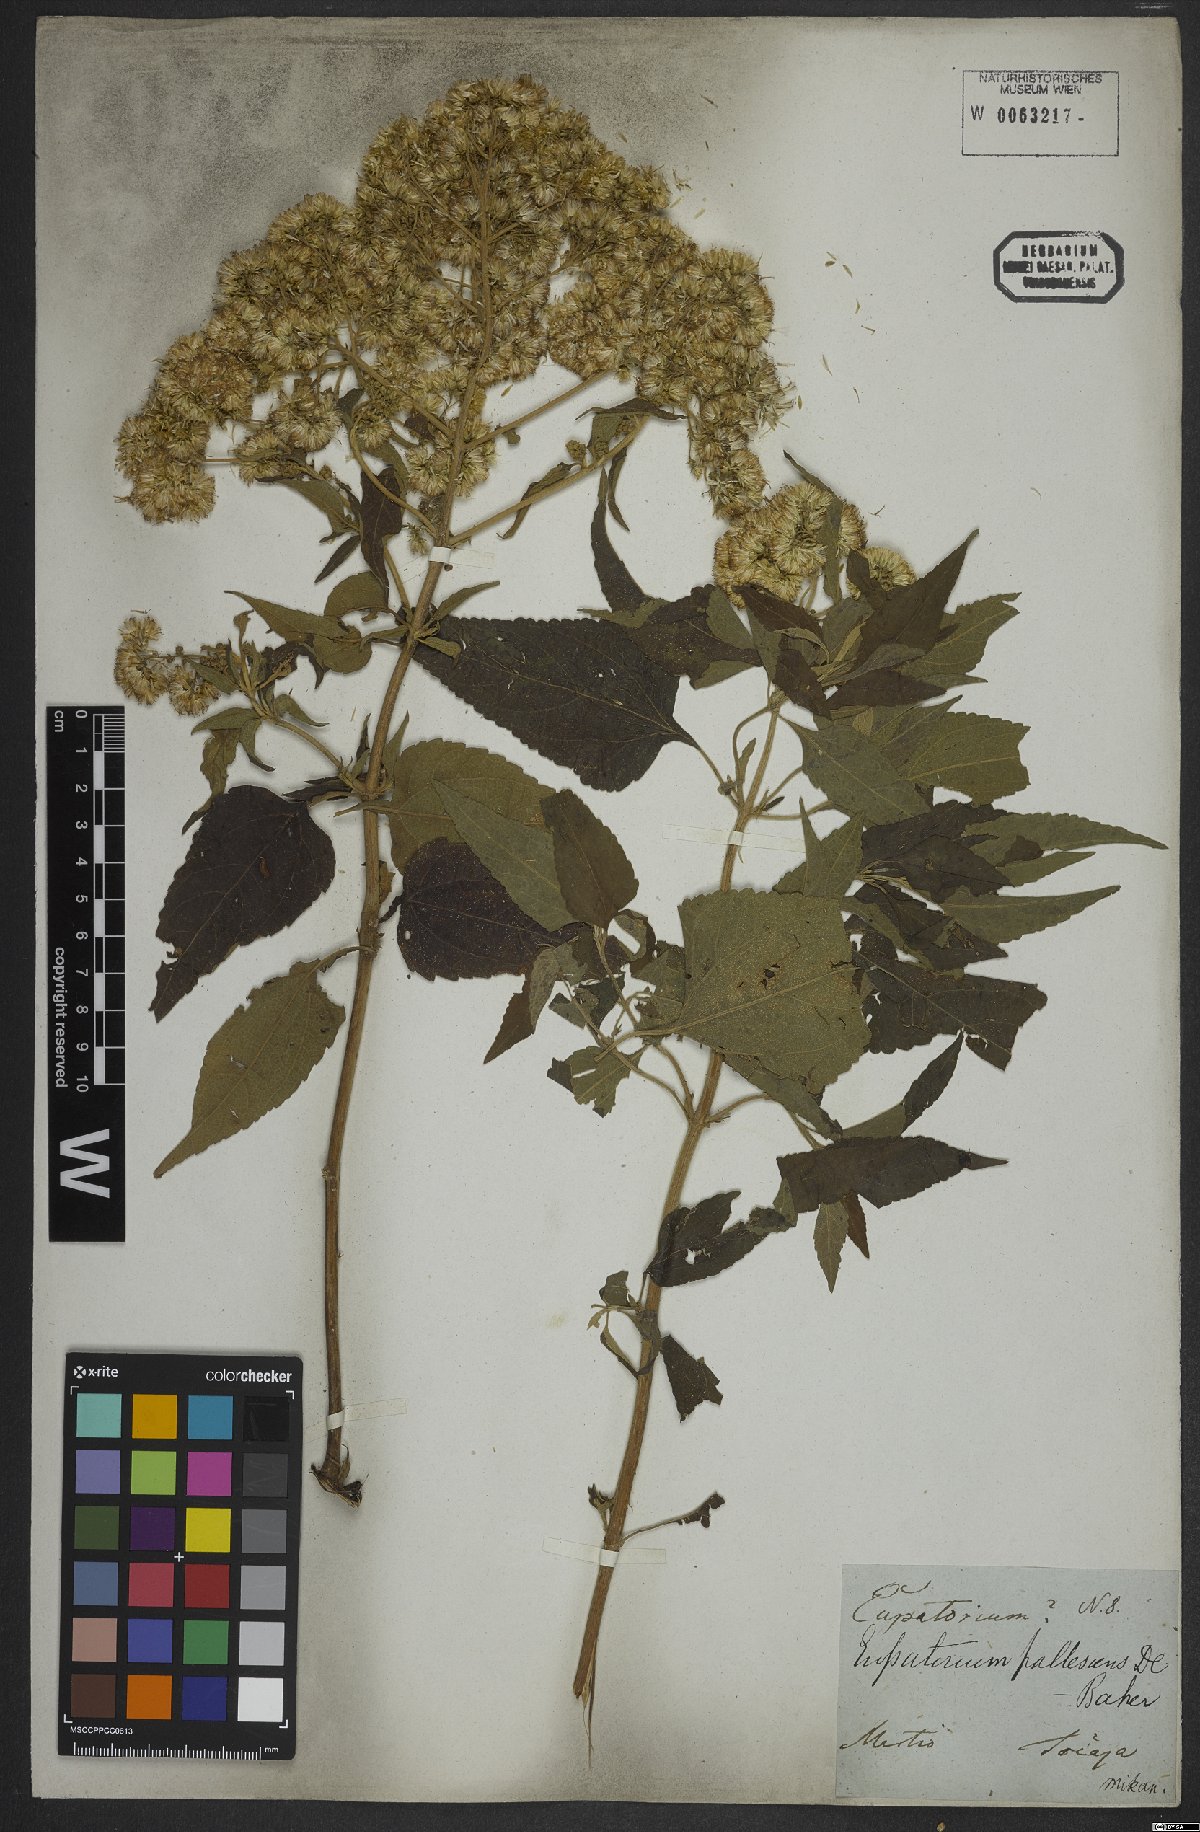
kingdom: Plantae
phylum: Tracheophyta
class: Magnoliopsida
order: Asterales
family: Asteraceae
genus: Austroeupatorium
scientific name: Austroeupatorium inulifolium
